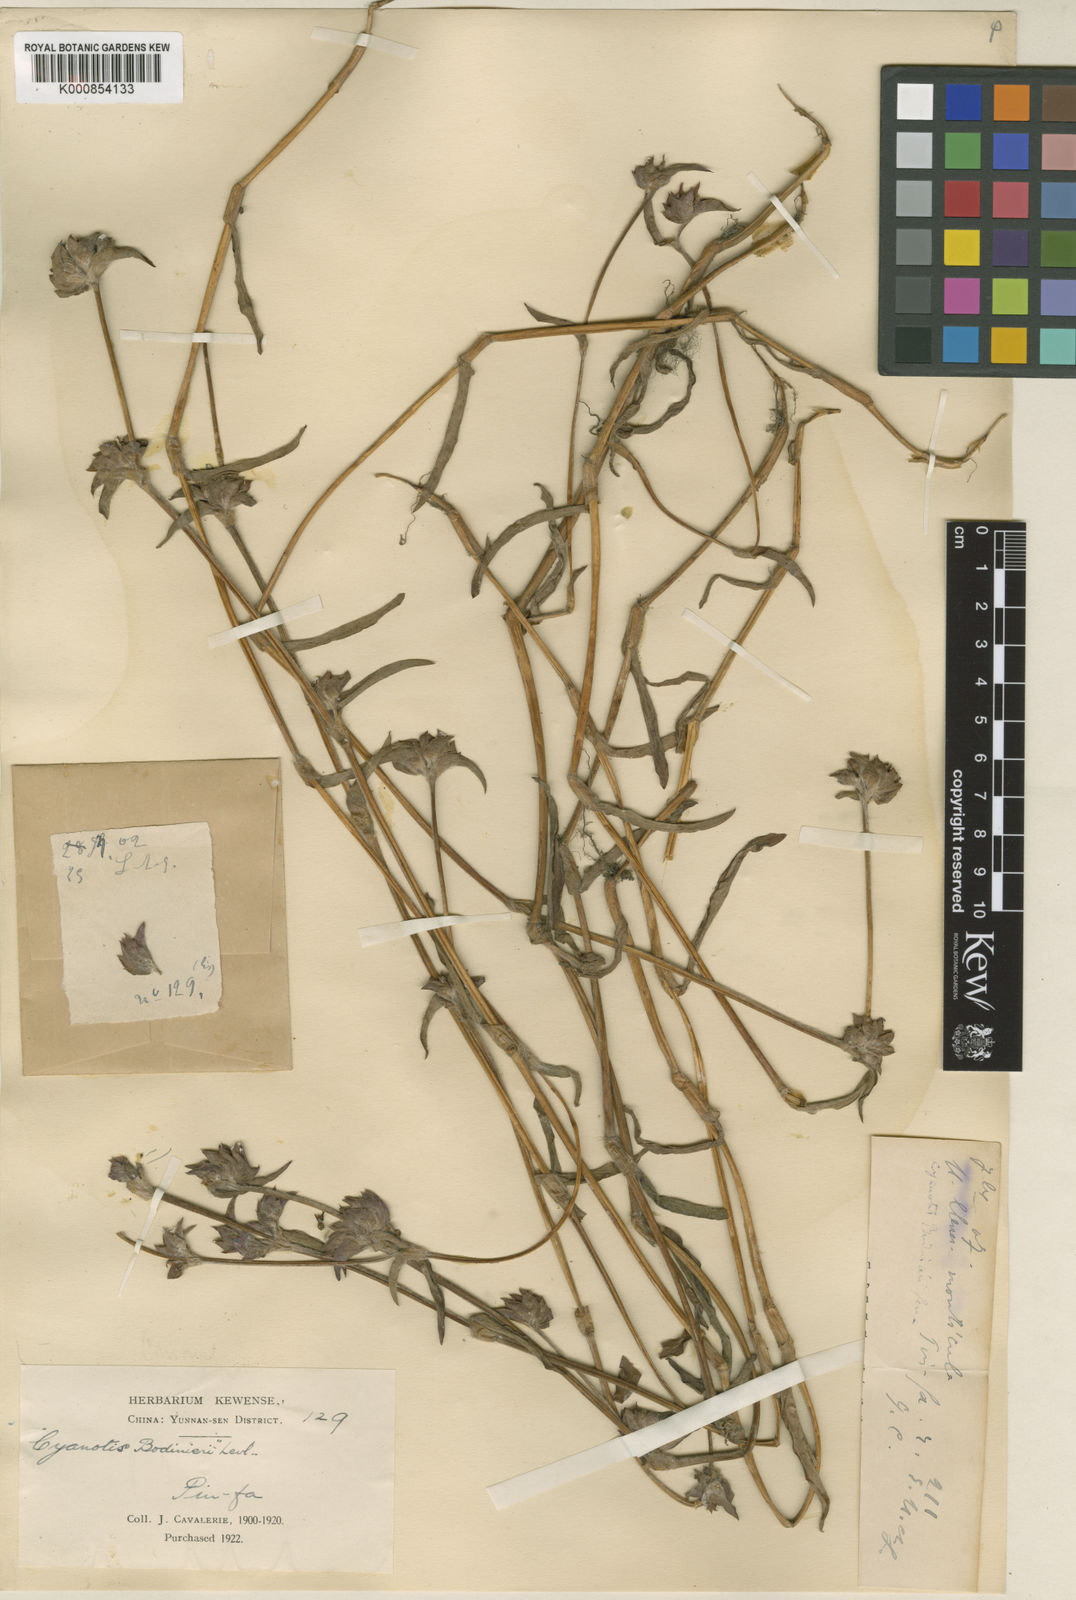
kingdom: Plantae
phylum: Tracheophyta
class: Liliopsida
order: Commelinales
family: Commelinaceae
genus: Cyanotis
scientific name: Cyanotis
